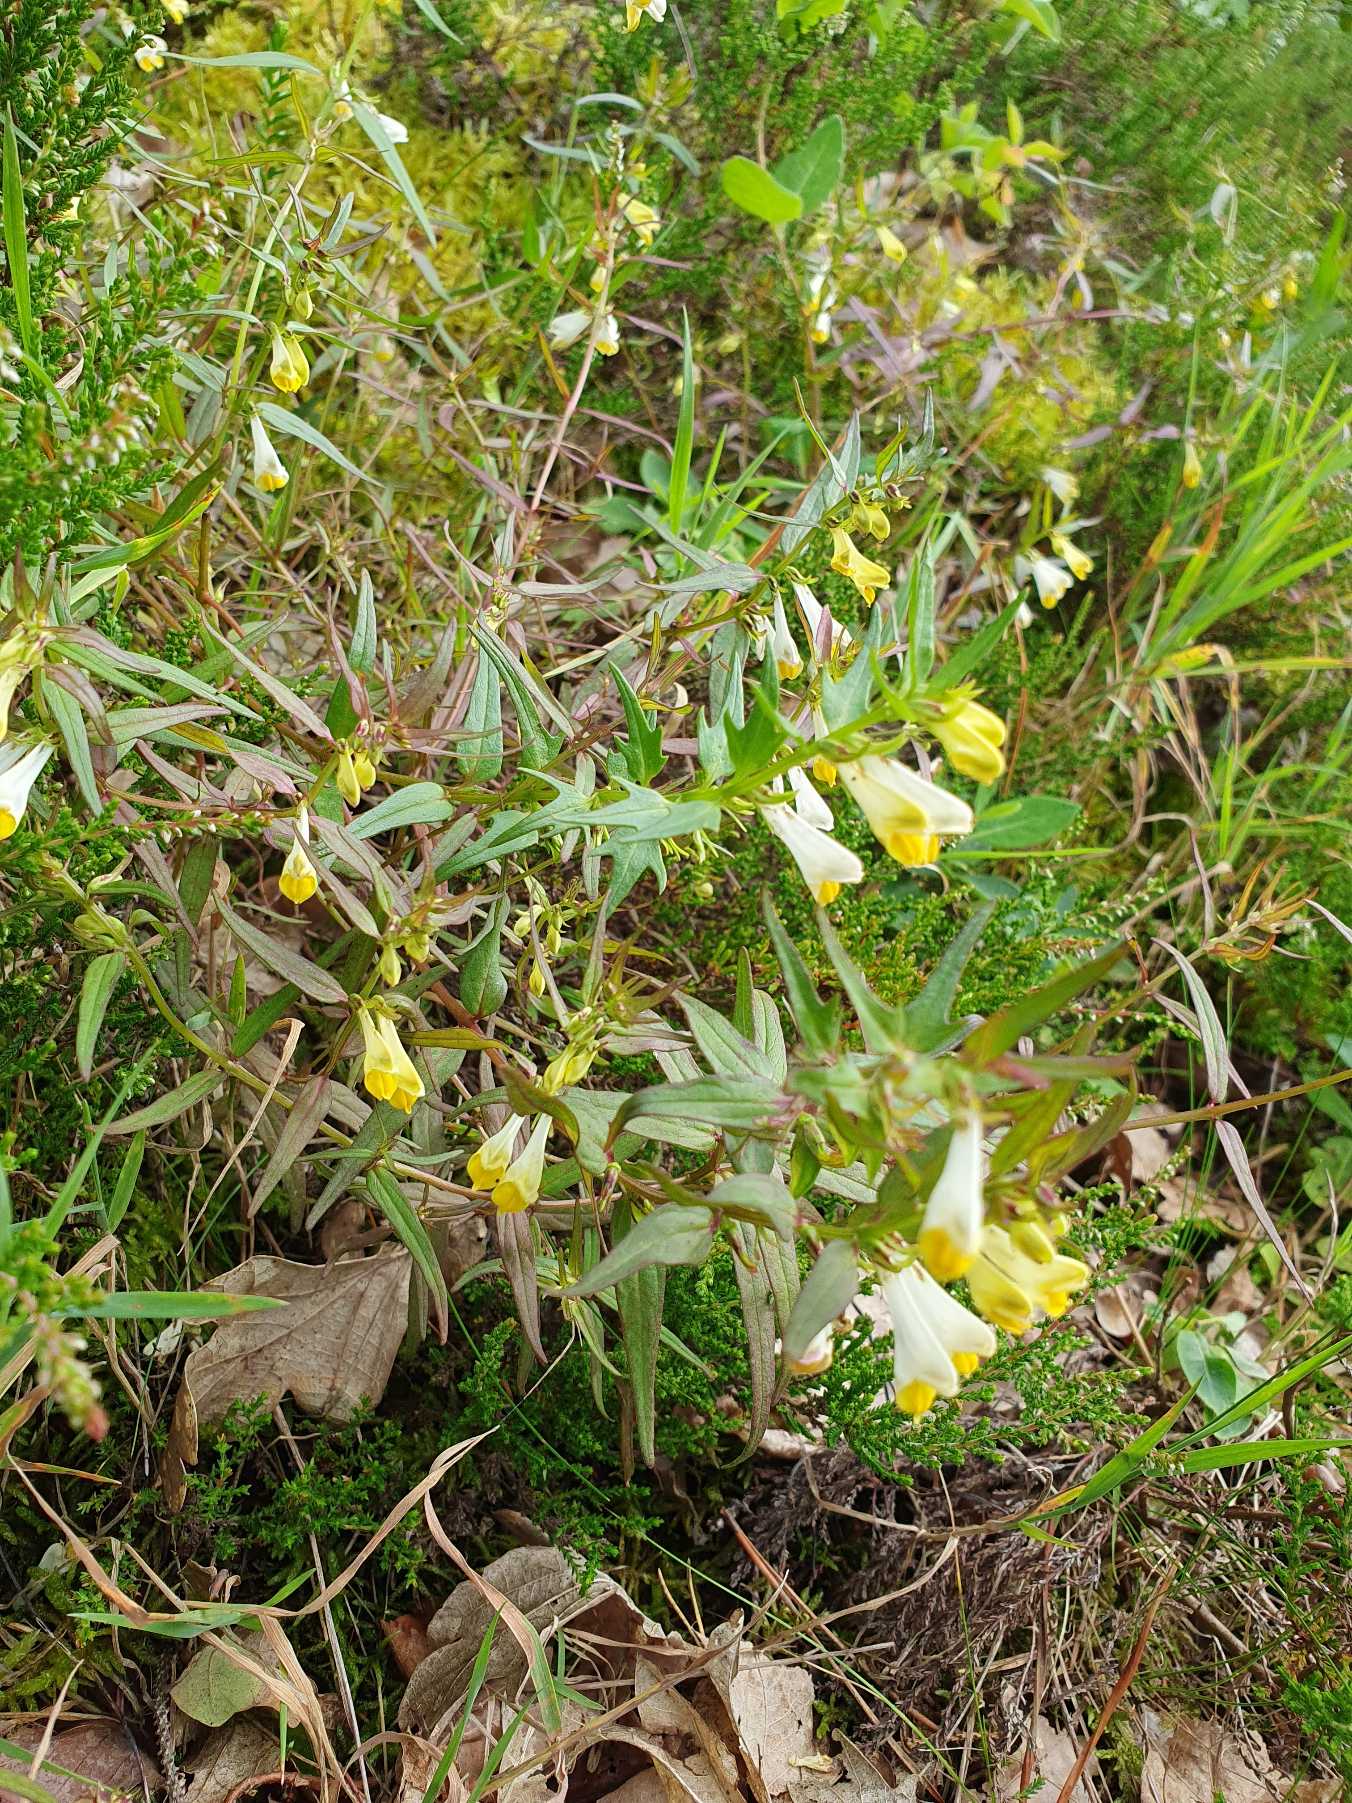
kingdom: Plantae
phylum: Tracheophyta
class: Magnoliopsida
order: Lamiales
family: Orobanchaceae
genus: Melampyrum
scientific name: Melampyrum pratense
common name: Almindelig kohvede
